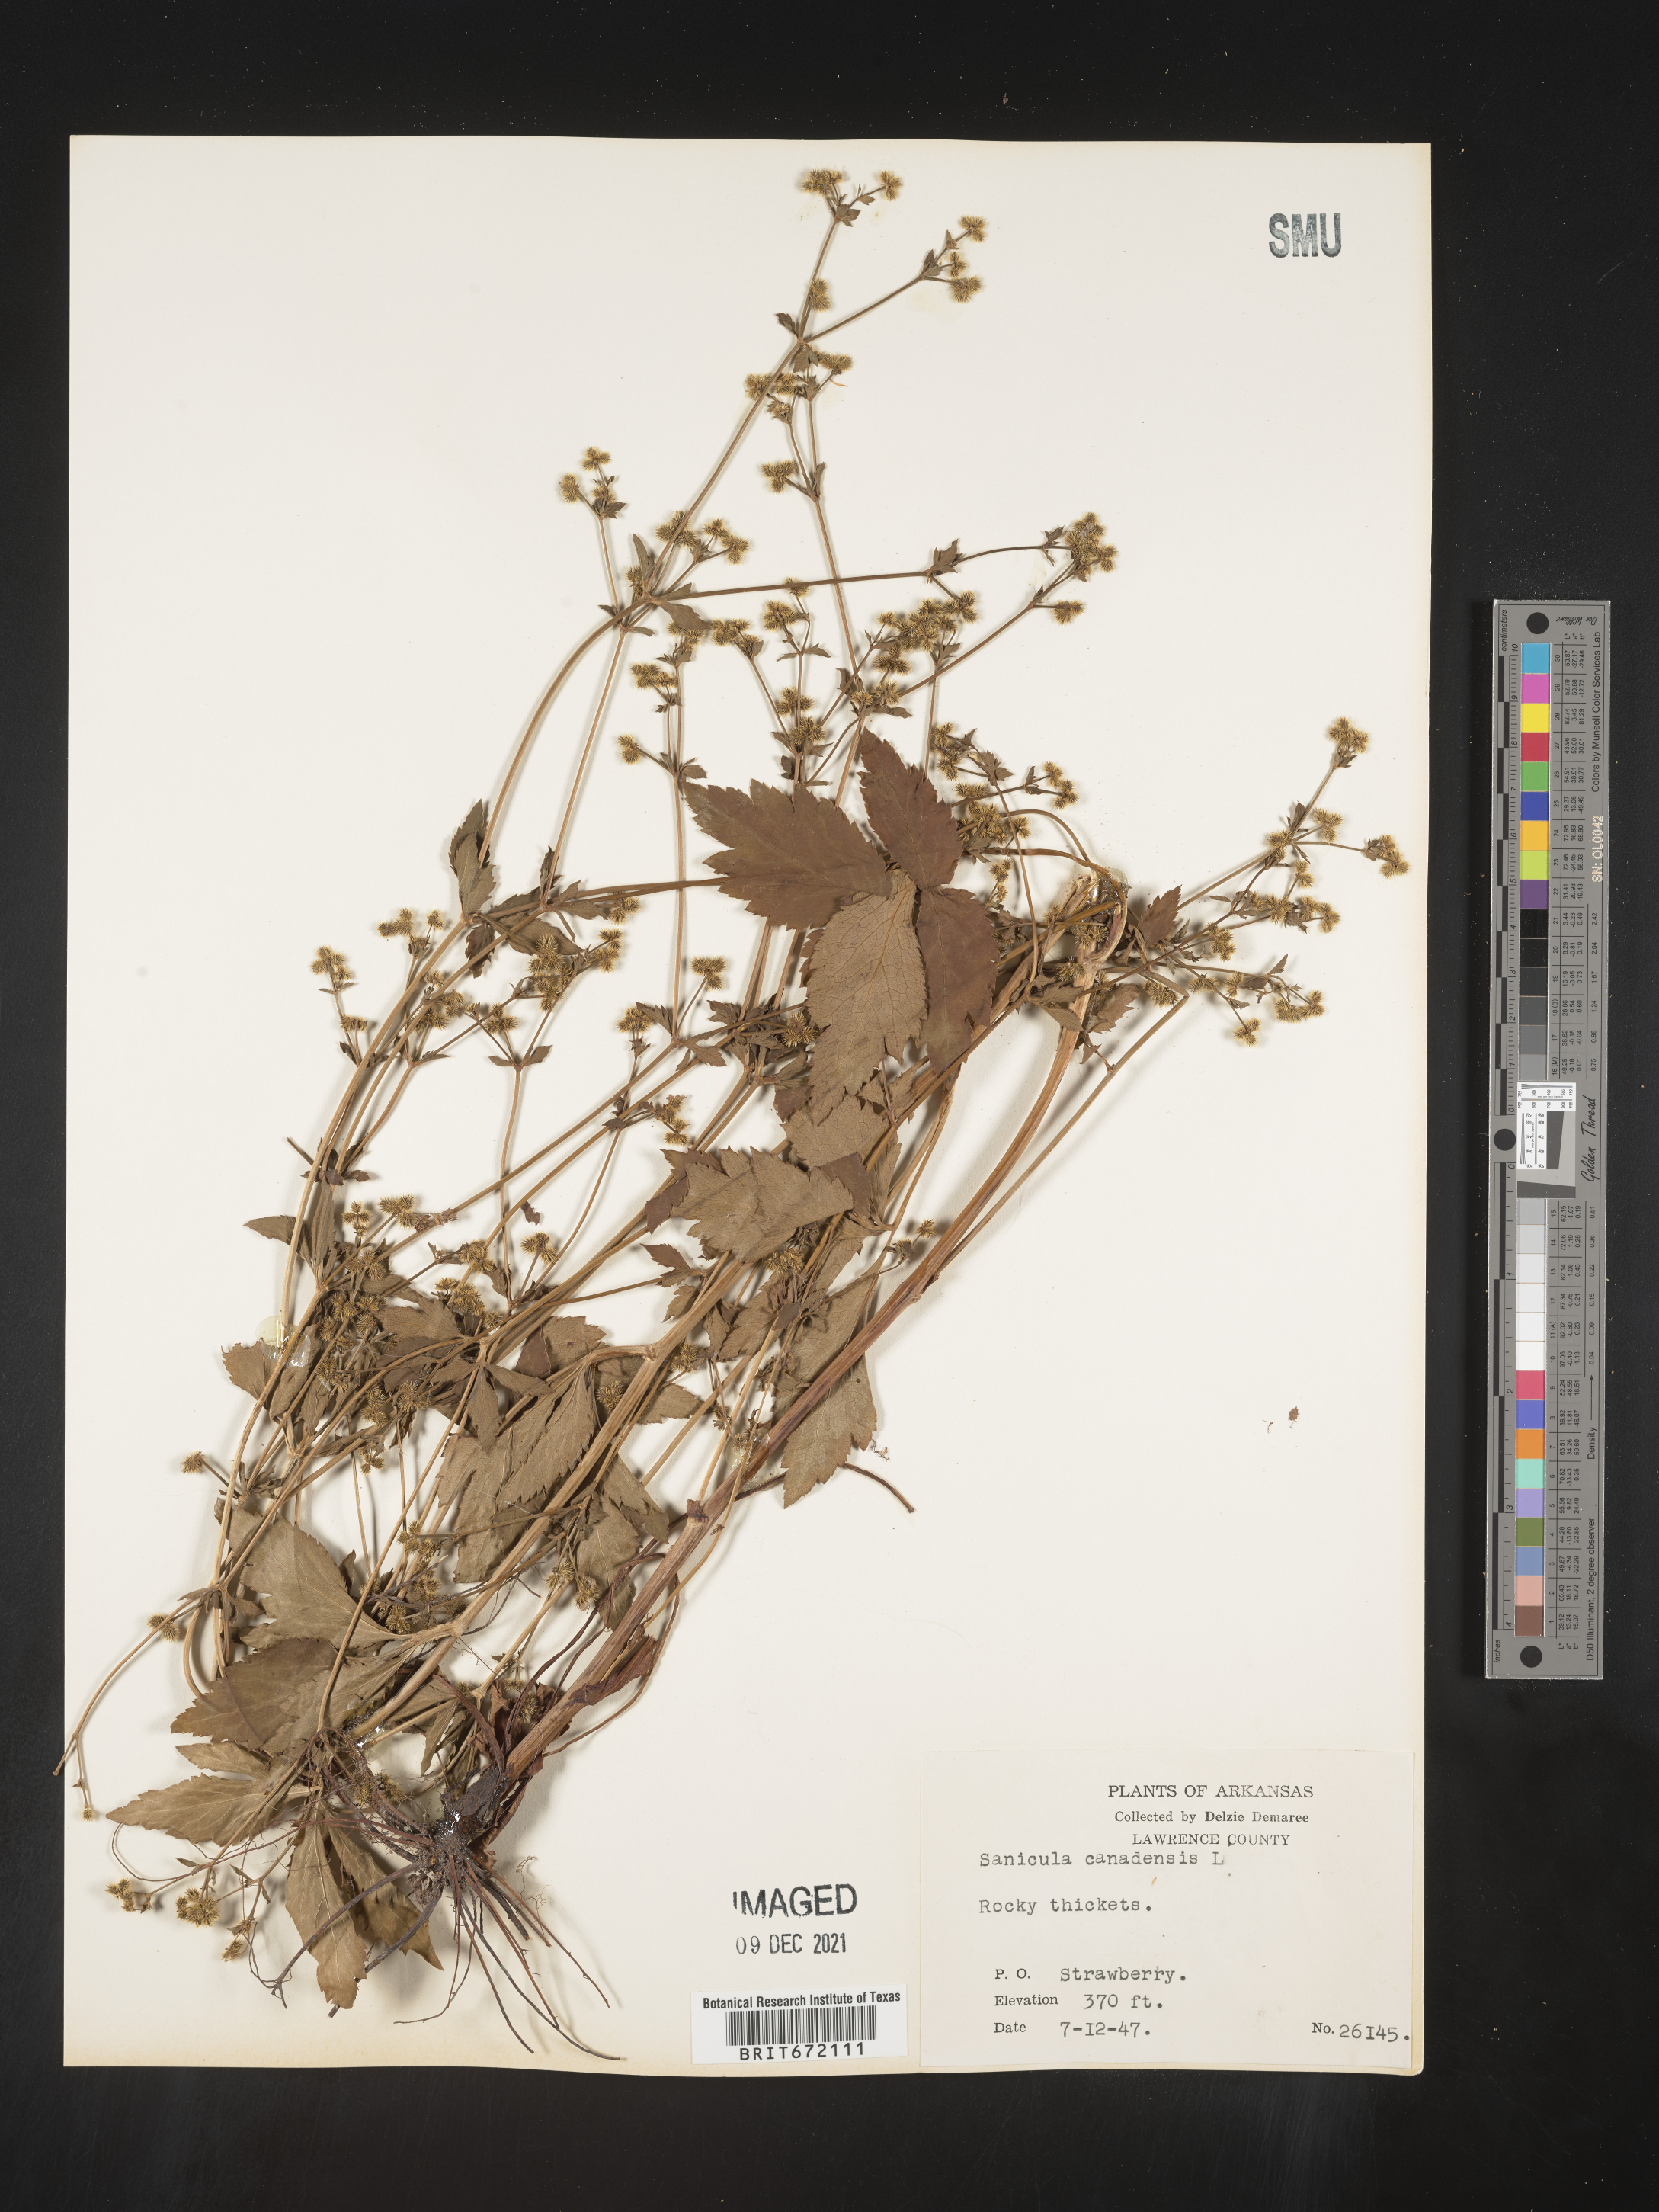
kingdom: Plantae
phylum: Tracheophyta
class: Magnoliopsida
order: Apiales
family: Apiaceae
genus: Sanicula
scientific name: Sanicula canadensis
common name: Canada sanicle
